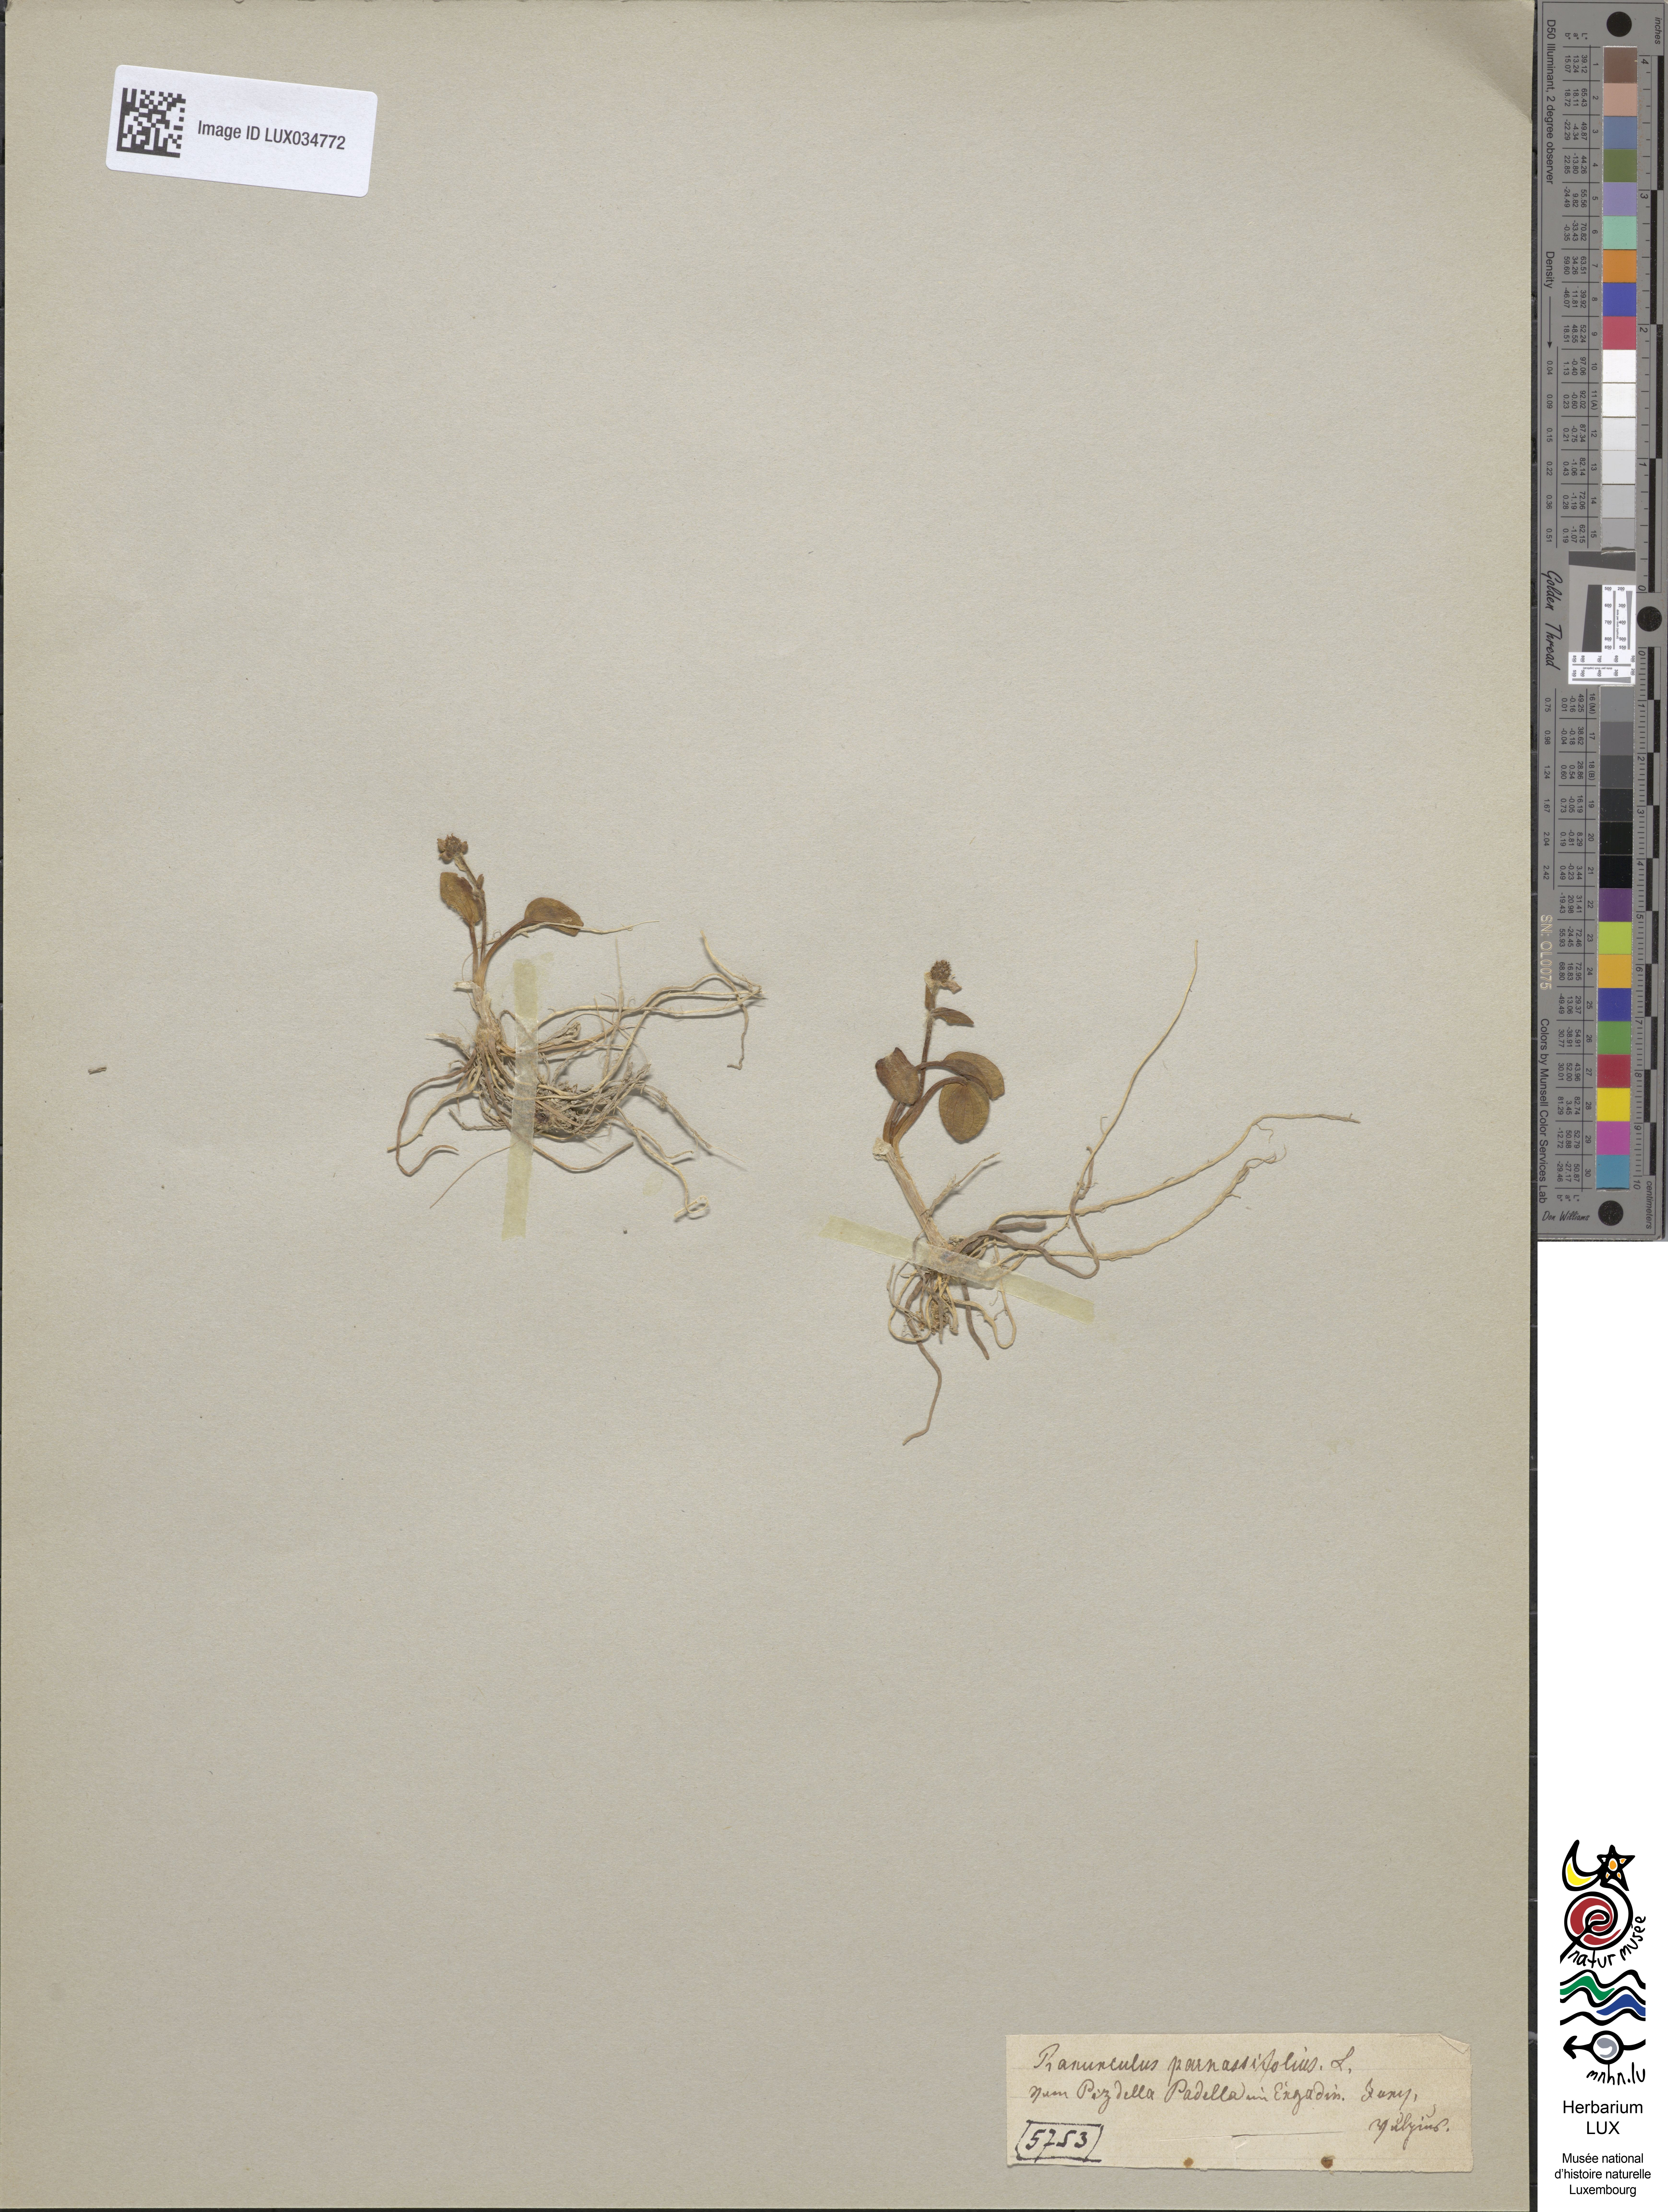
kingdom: Plantae
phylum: Tracheophyta
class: Magnoliopsida
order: Ranunculales
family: Ranunculaceae
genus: Ranunculus
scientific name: Ranunculus parnassiifolius
